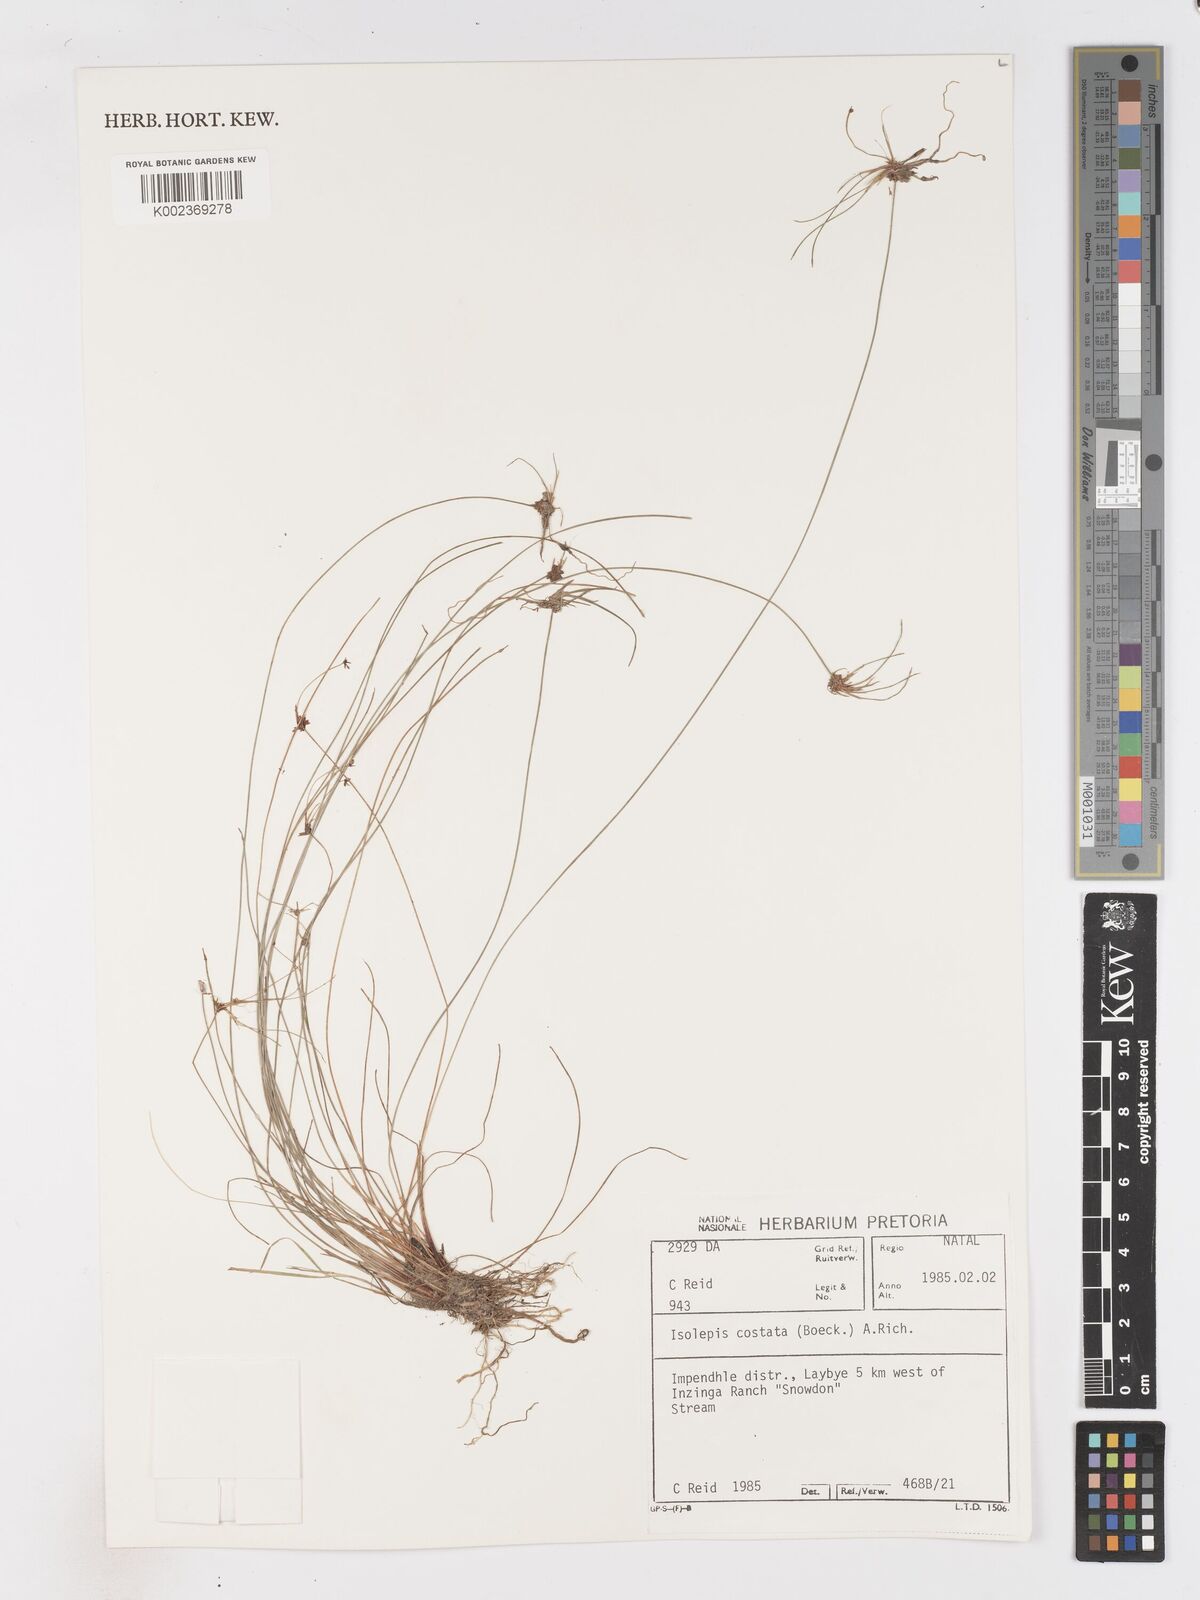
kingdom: Plantae
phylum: Tracheophyta
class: Liliopsida
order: Poales
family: Cyperaceae
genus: Isolepis
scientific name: Isolepis costata
